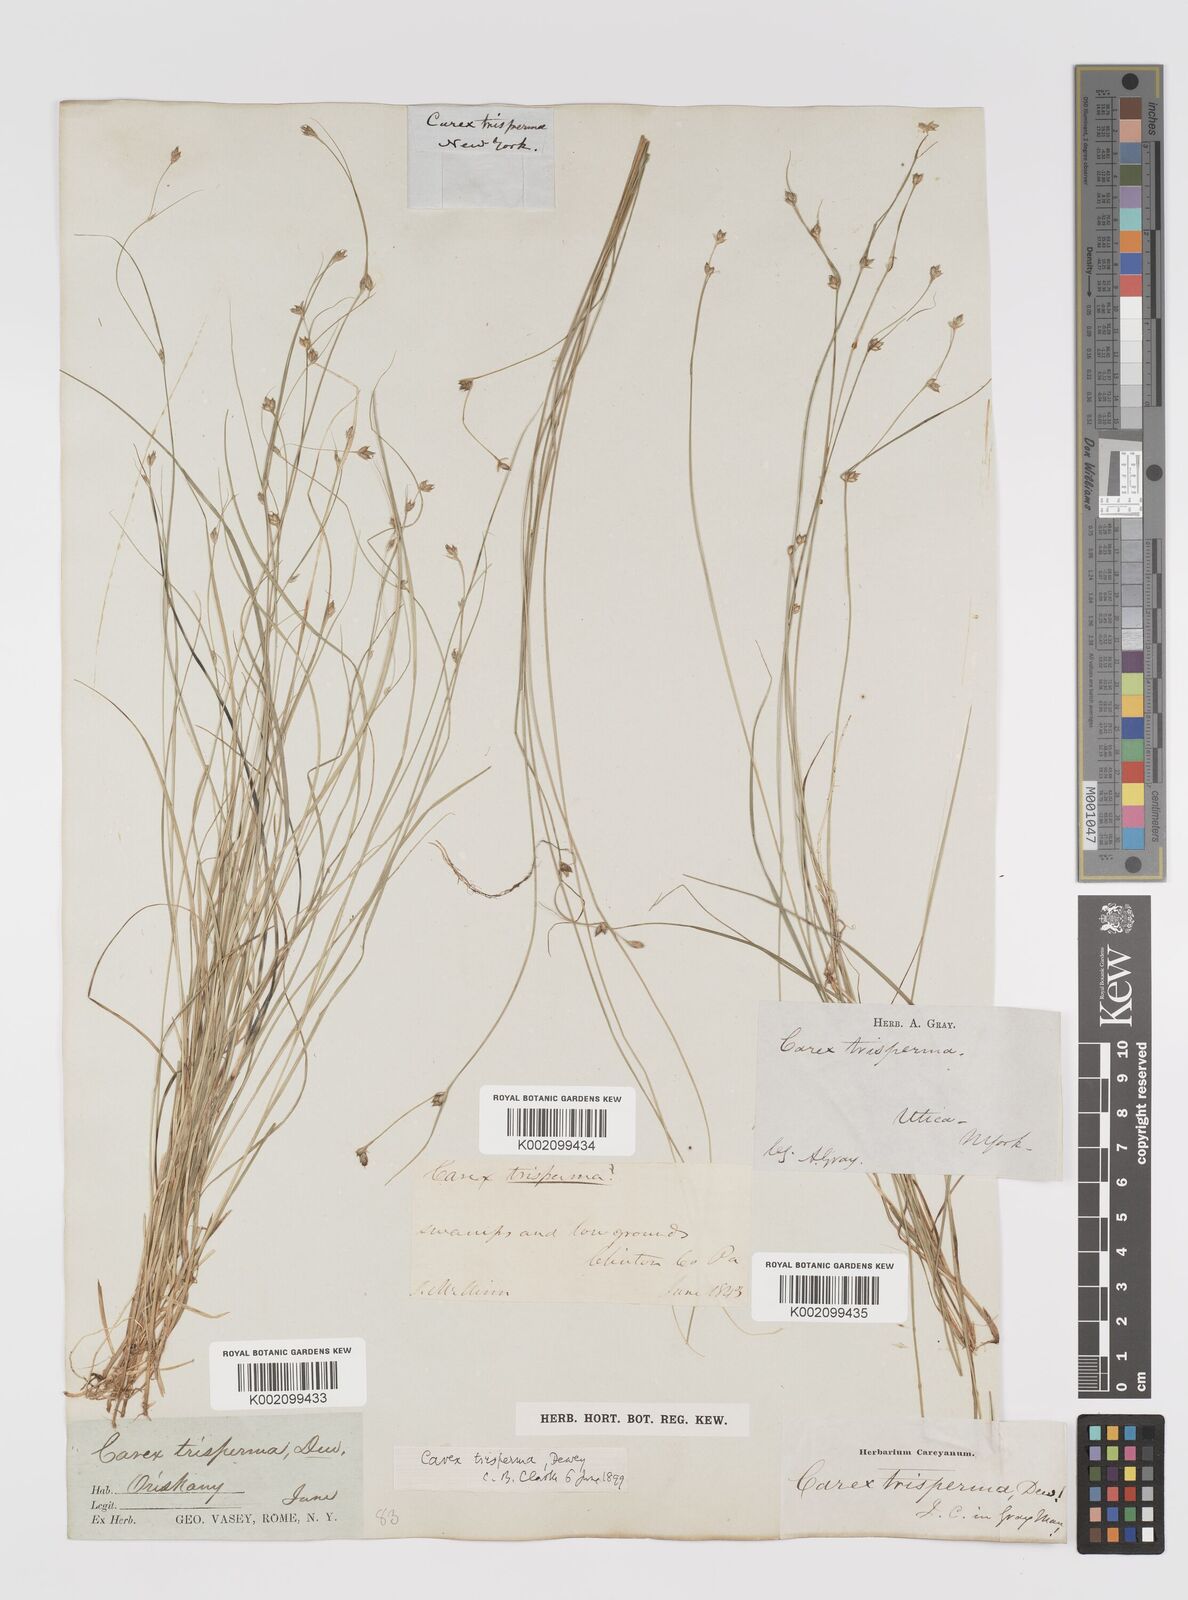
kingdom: Plantae
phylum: Tracheophyta
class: Liliopsida
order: Poales
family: Cyperaceae
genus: Carex
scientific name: Carex trisperma
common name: Three-seeded sedge
